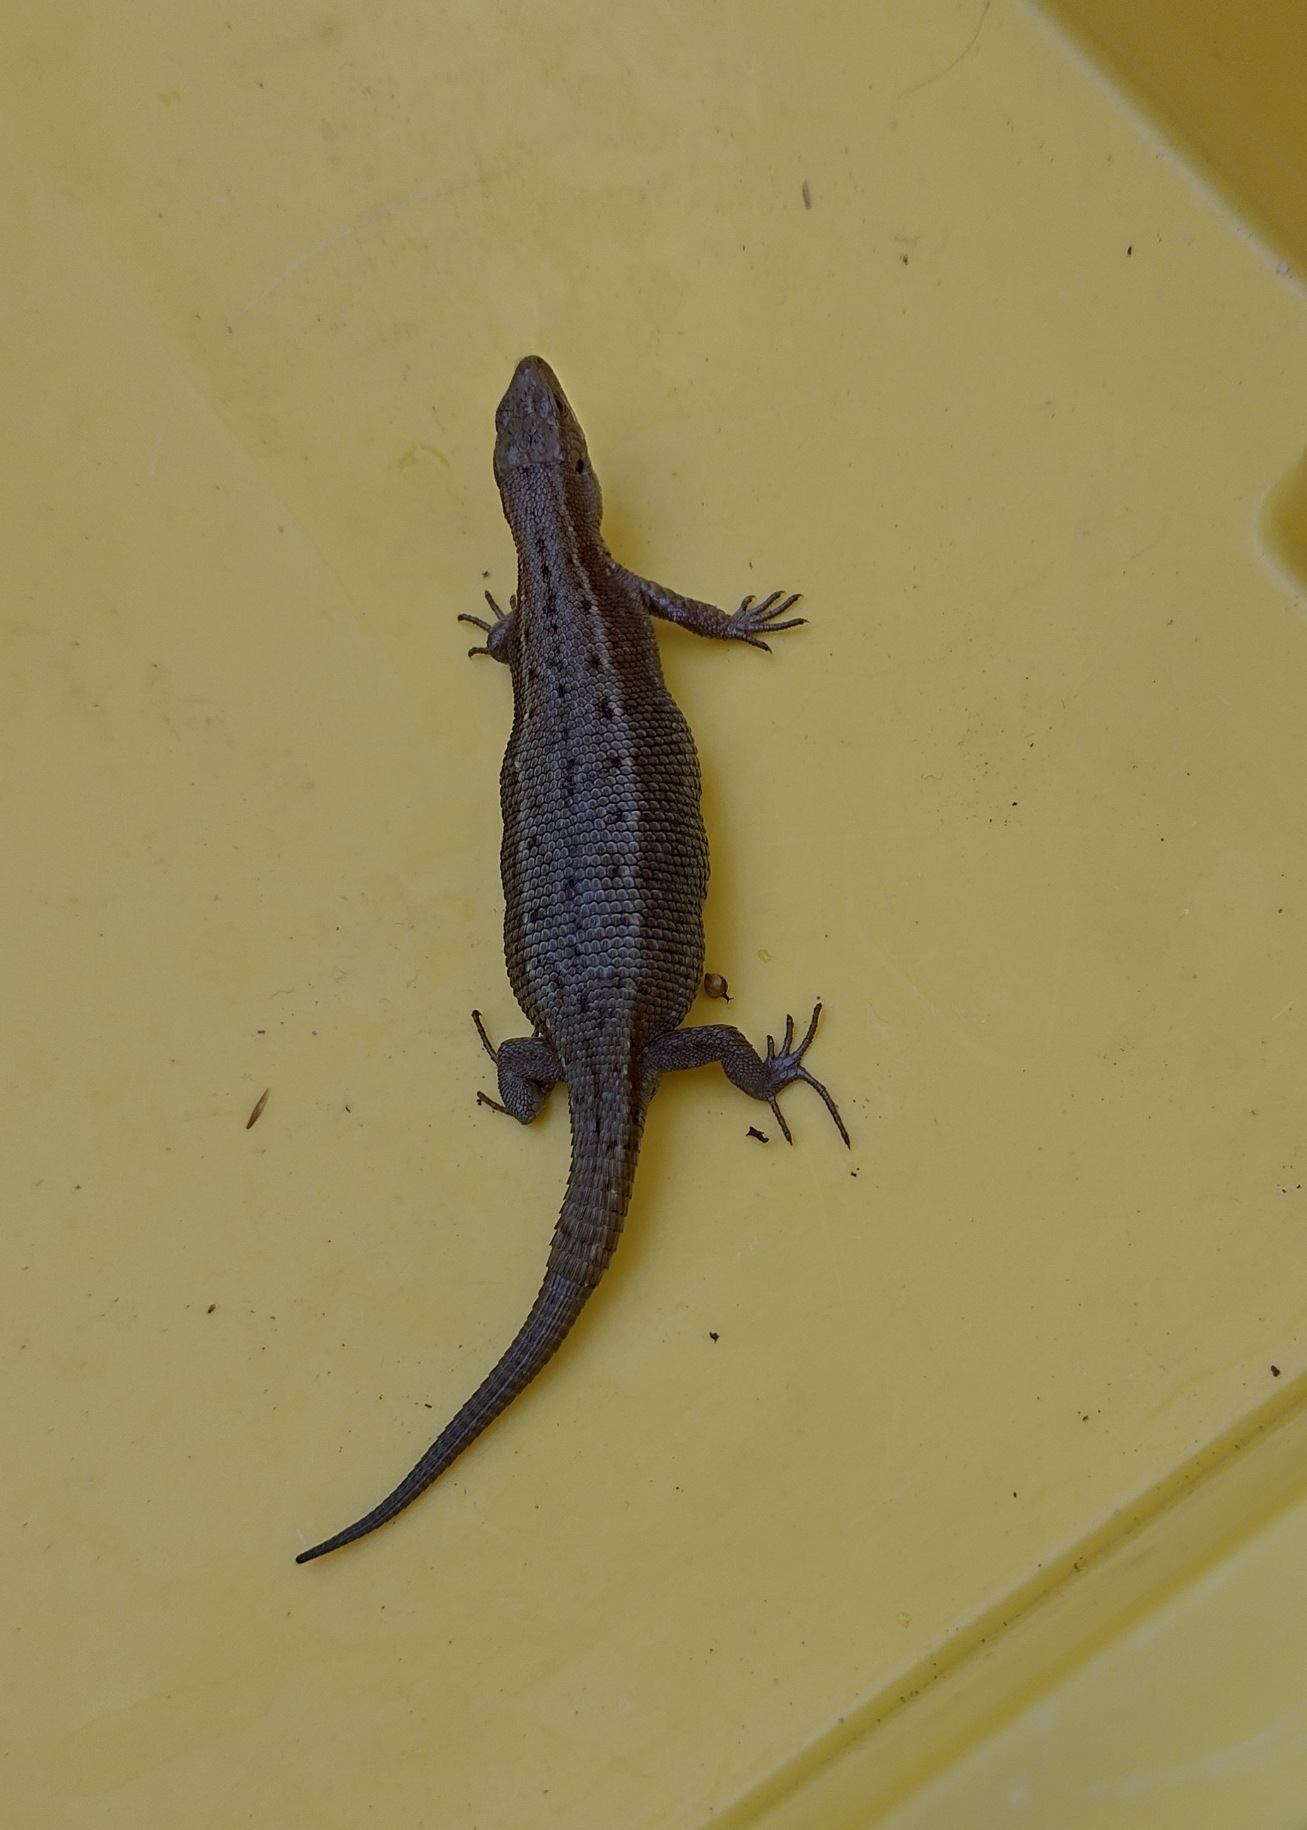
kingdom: Animalia
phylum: Chordata
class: Squamata
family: Lacertidae
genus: Zootoca
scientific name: Zootoca vivipara
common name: Skovfirben
